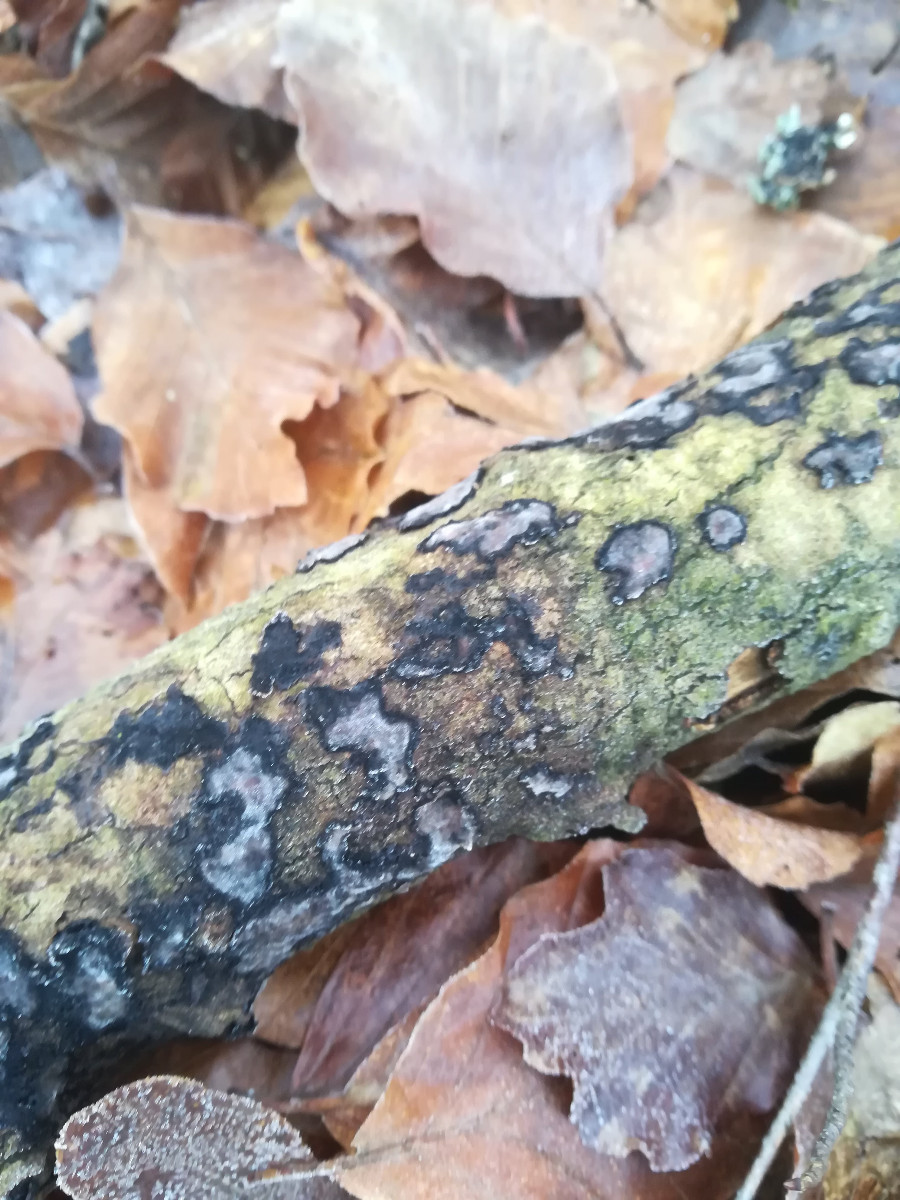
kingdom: Fungi
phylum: Basidiomycota
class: Agaricomycetes
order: Russulales
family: Peniophoraceae
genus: Peniophora
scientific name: Peniophora quercina
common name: ege-voksskind
